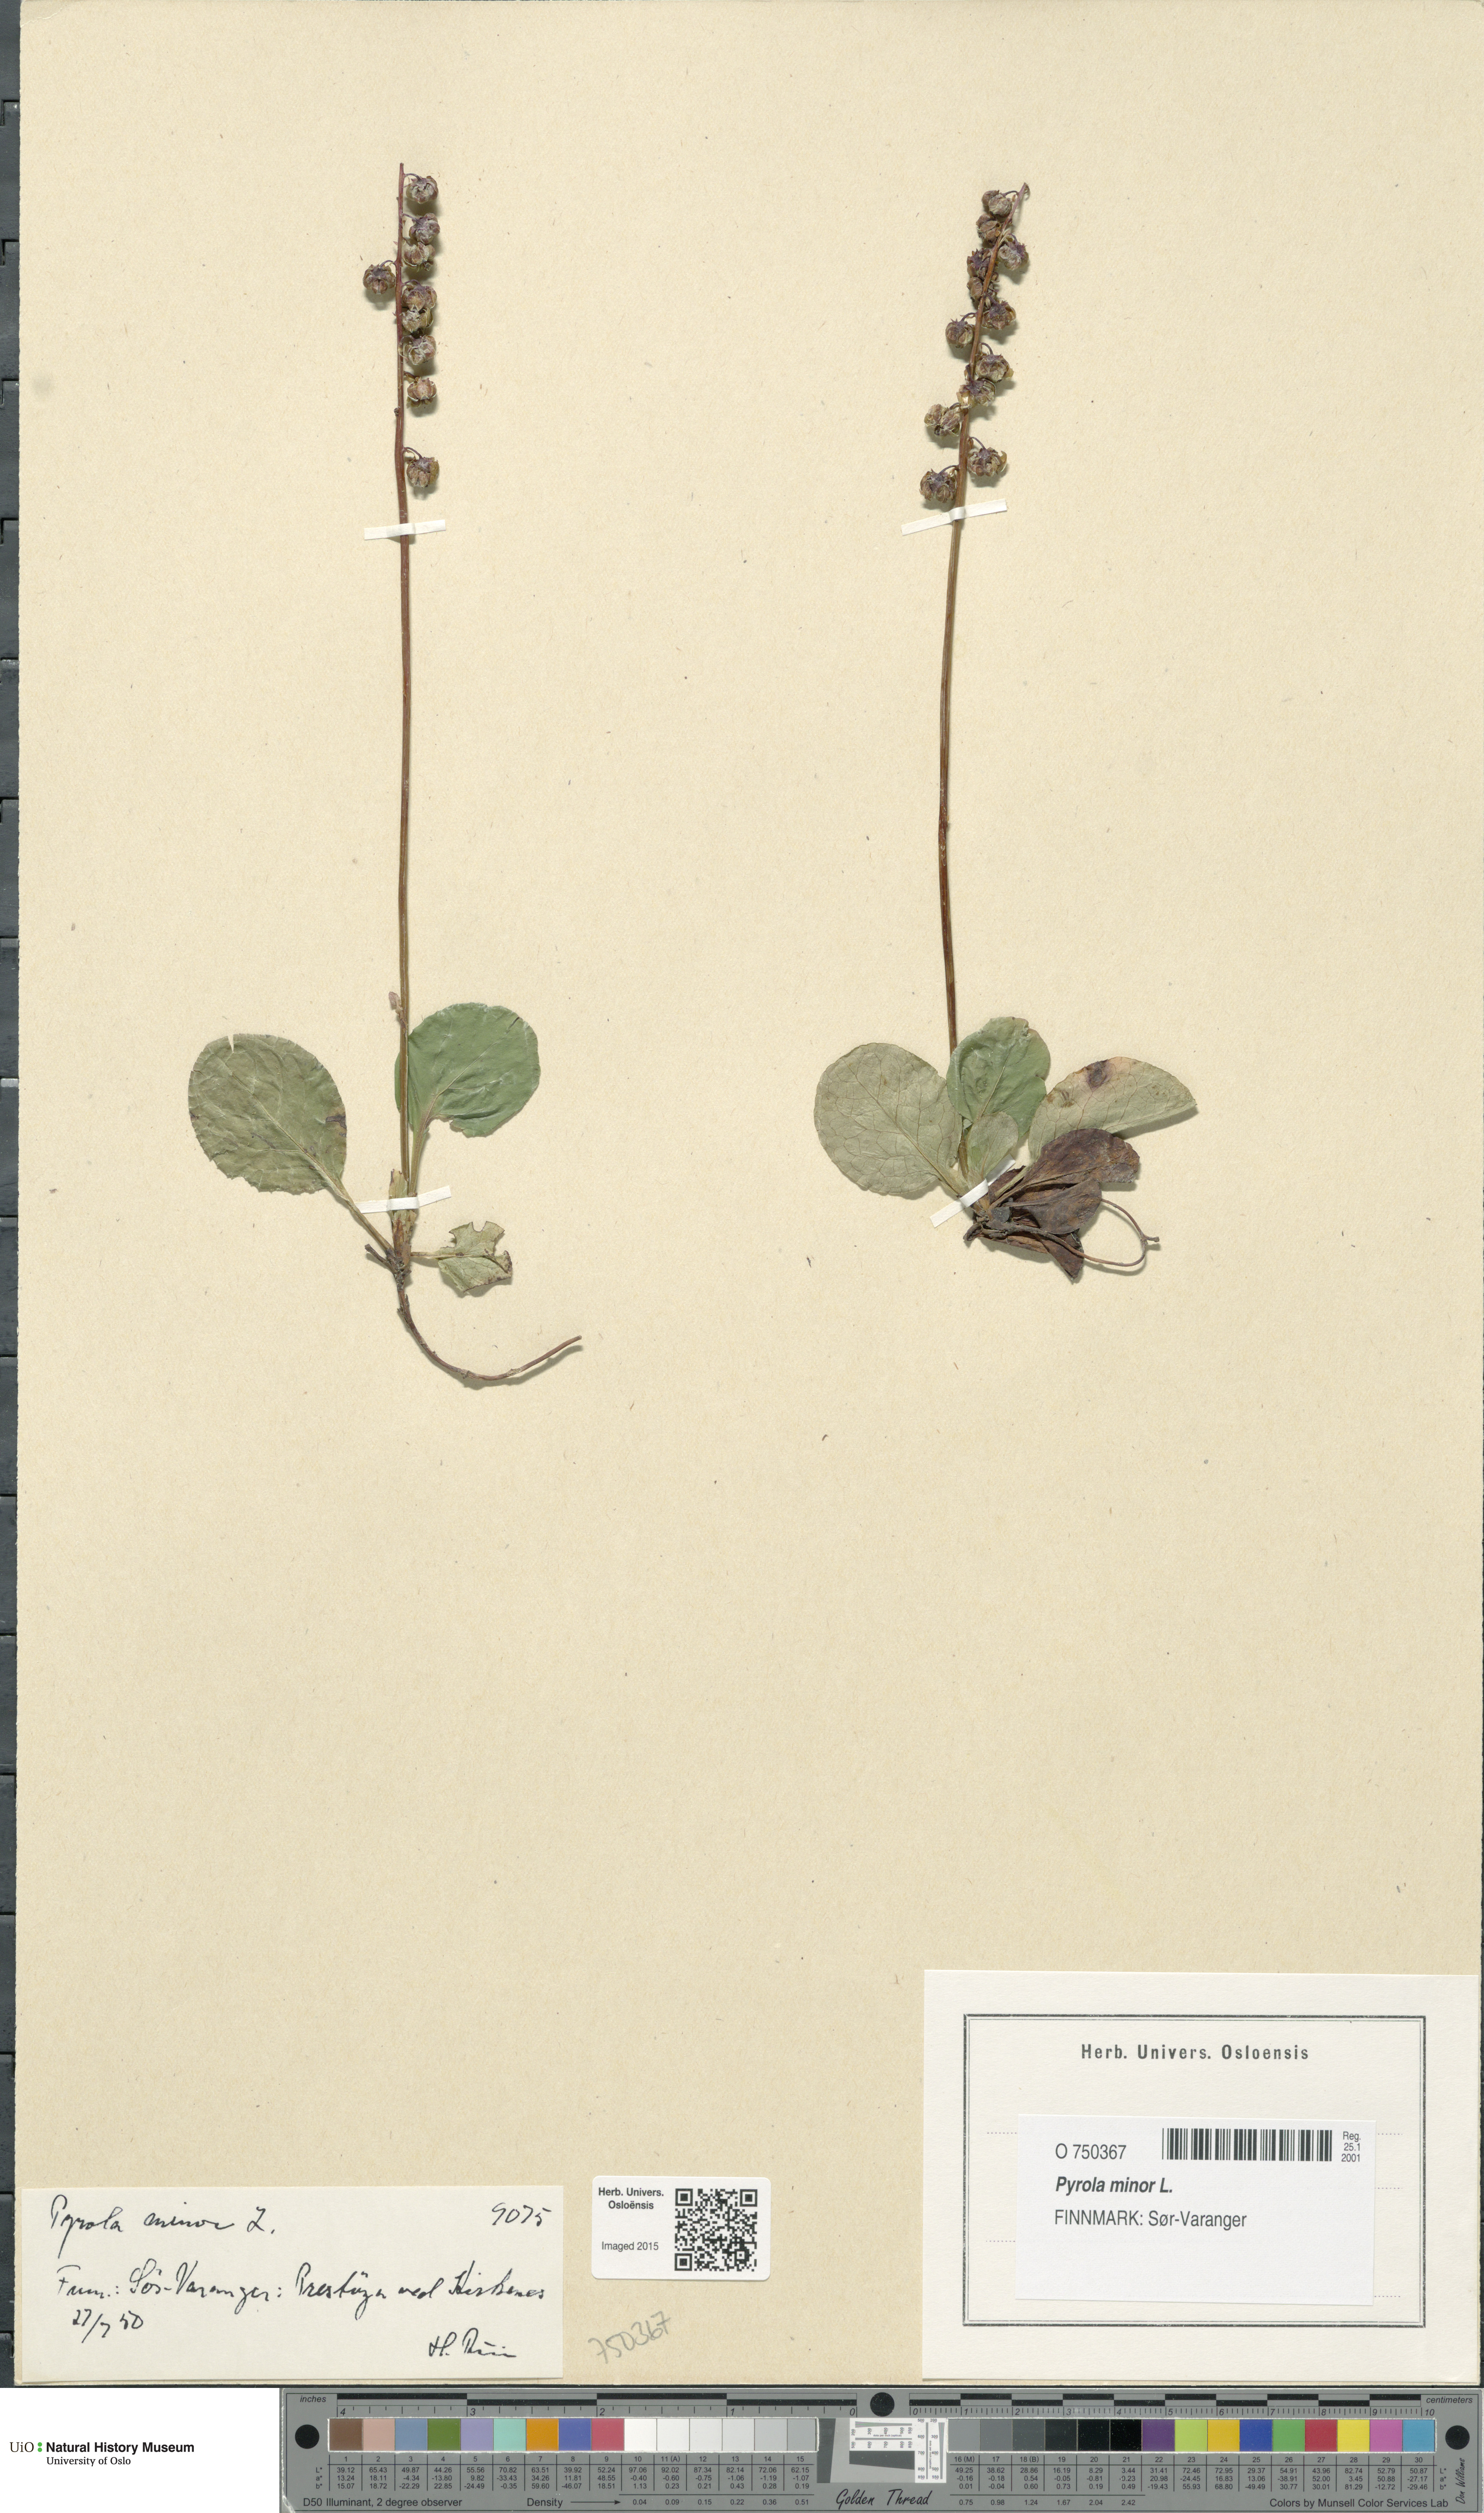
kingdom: Plantae
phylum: Tracheophyta
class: Magnoliopsida
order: Ericales
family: Ericaceae
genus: Pyrola
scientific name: Pyrola minor
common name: Common wintergreen
